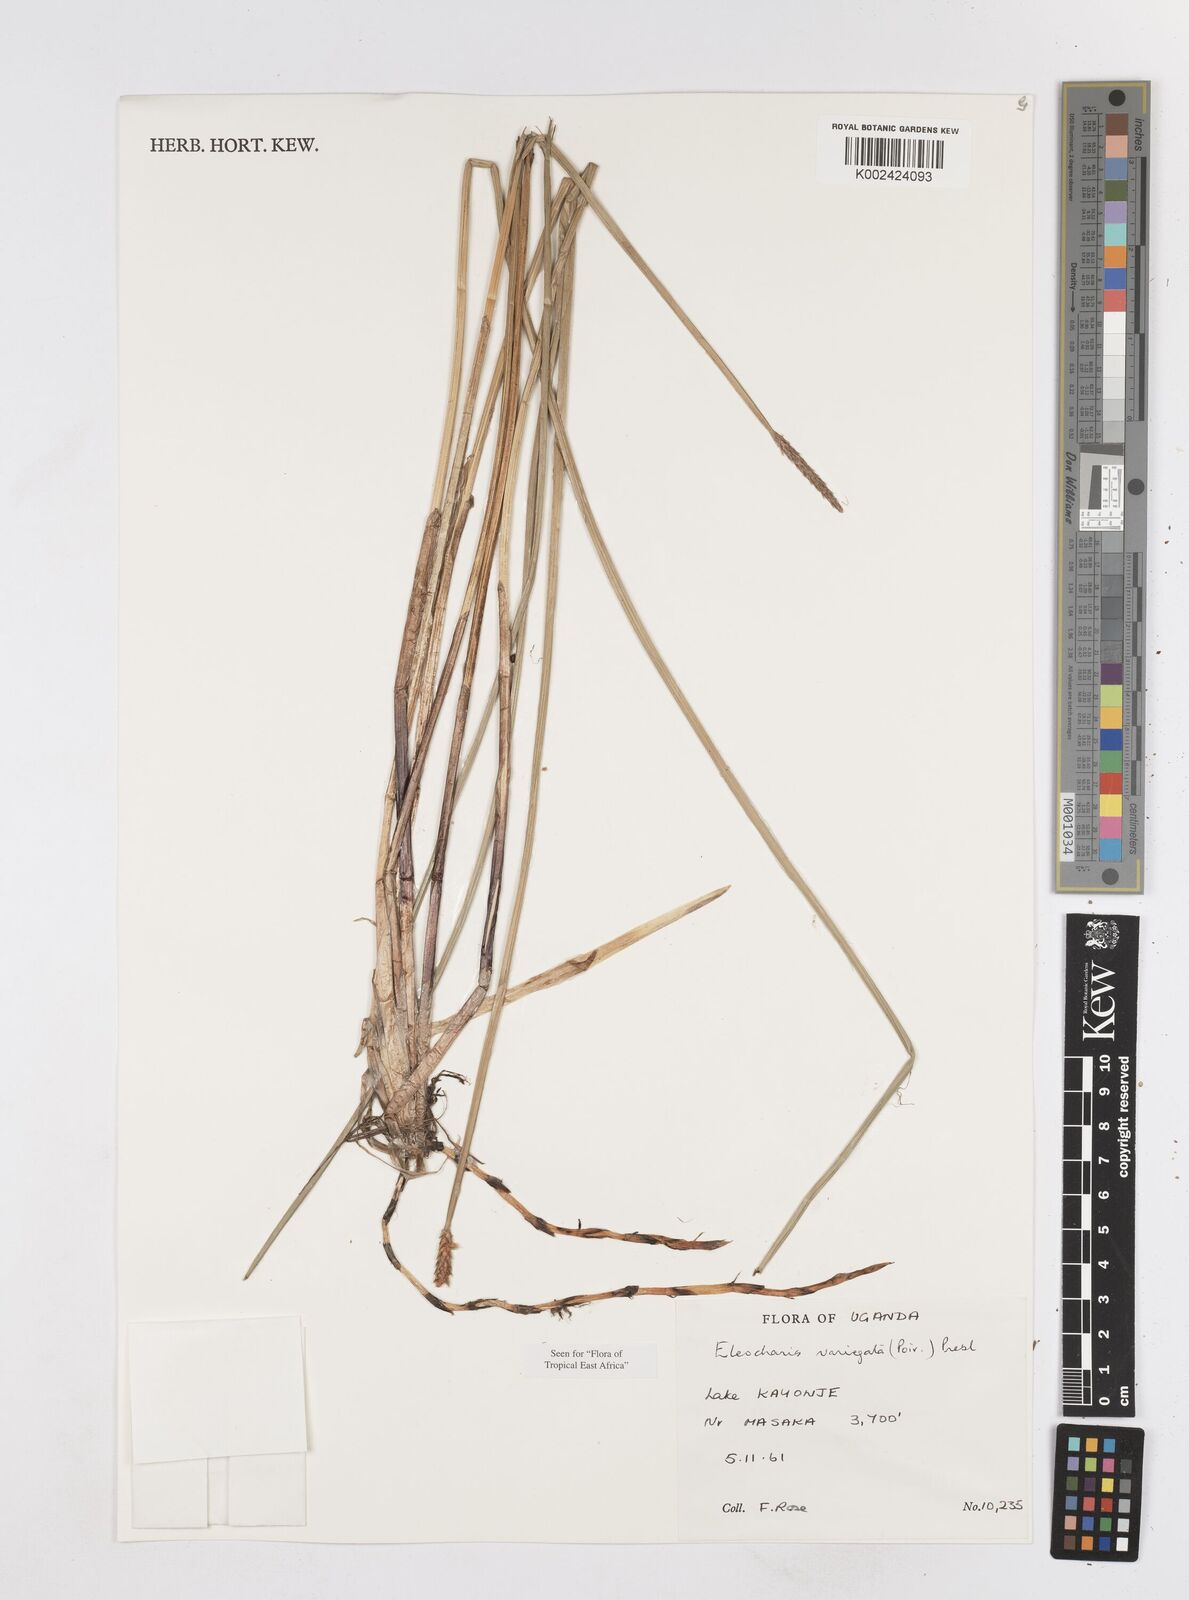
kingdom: Plantae
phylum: Tracheophyta
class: Liliopsida
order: Poales
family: Cyperaceae
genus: Eleocharis
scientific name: Eleocharis variegata
